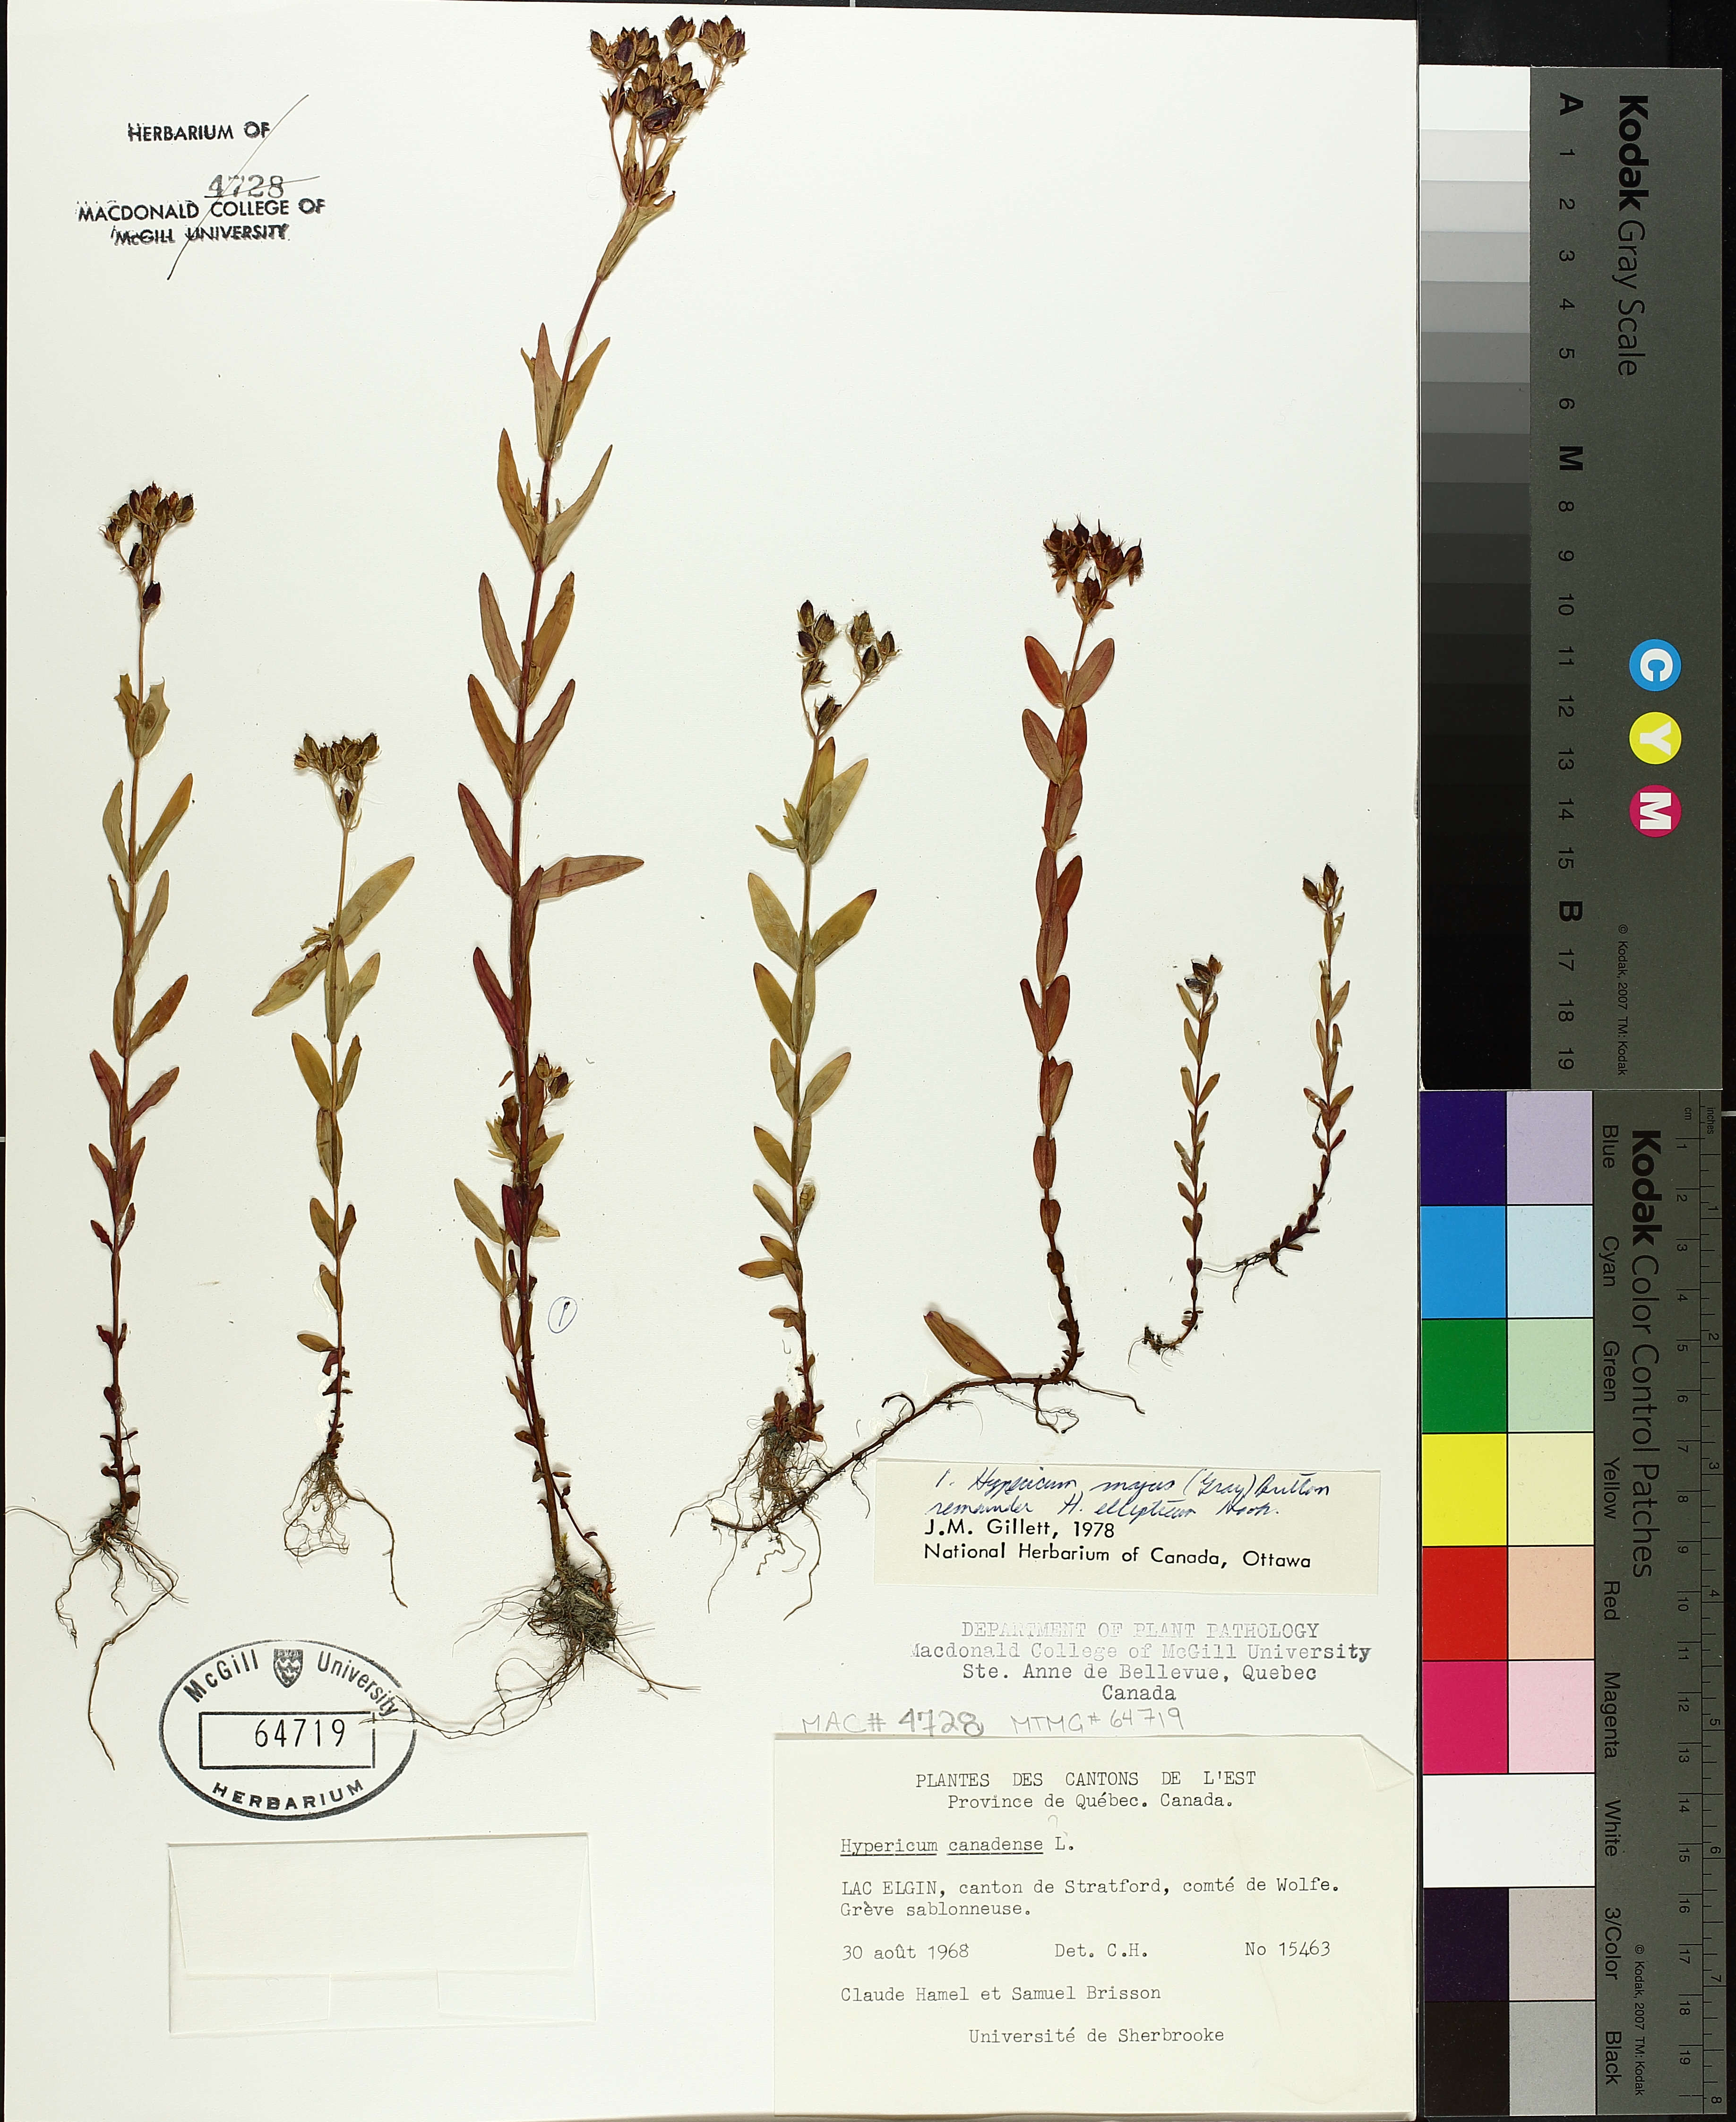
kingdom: Plantae
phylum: Tracheophyta
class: Magnoliopsida
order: Malpighiales
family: Hypericaceae
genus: Hypericum
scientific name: Hypericum ellipticum
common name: Elliptic st. john's-wort
